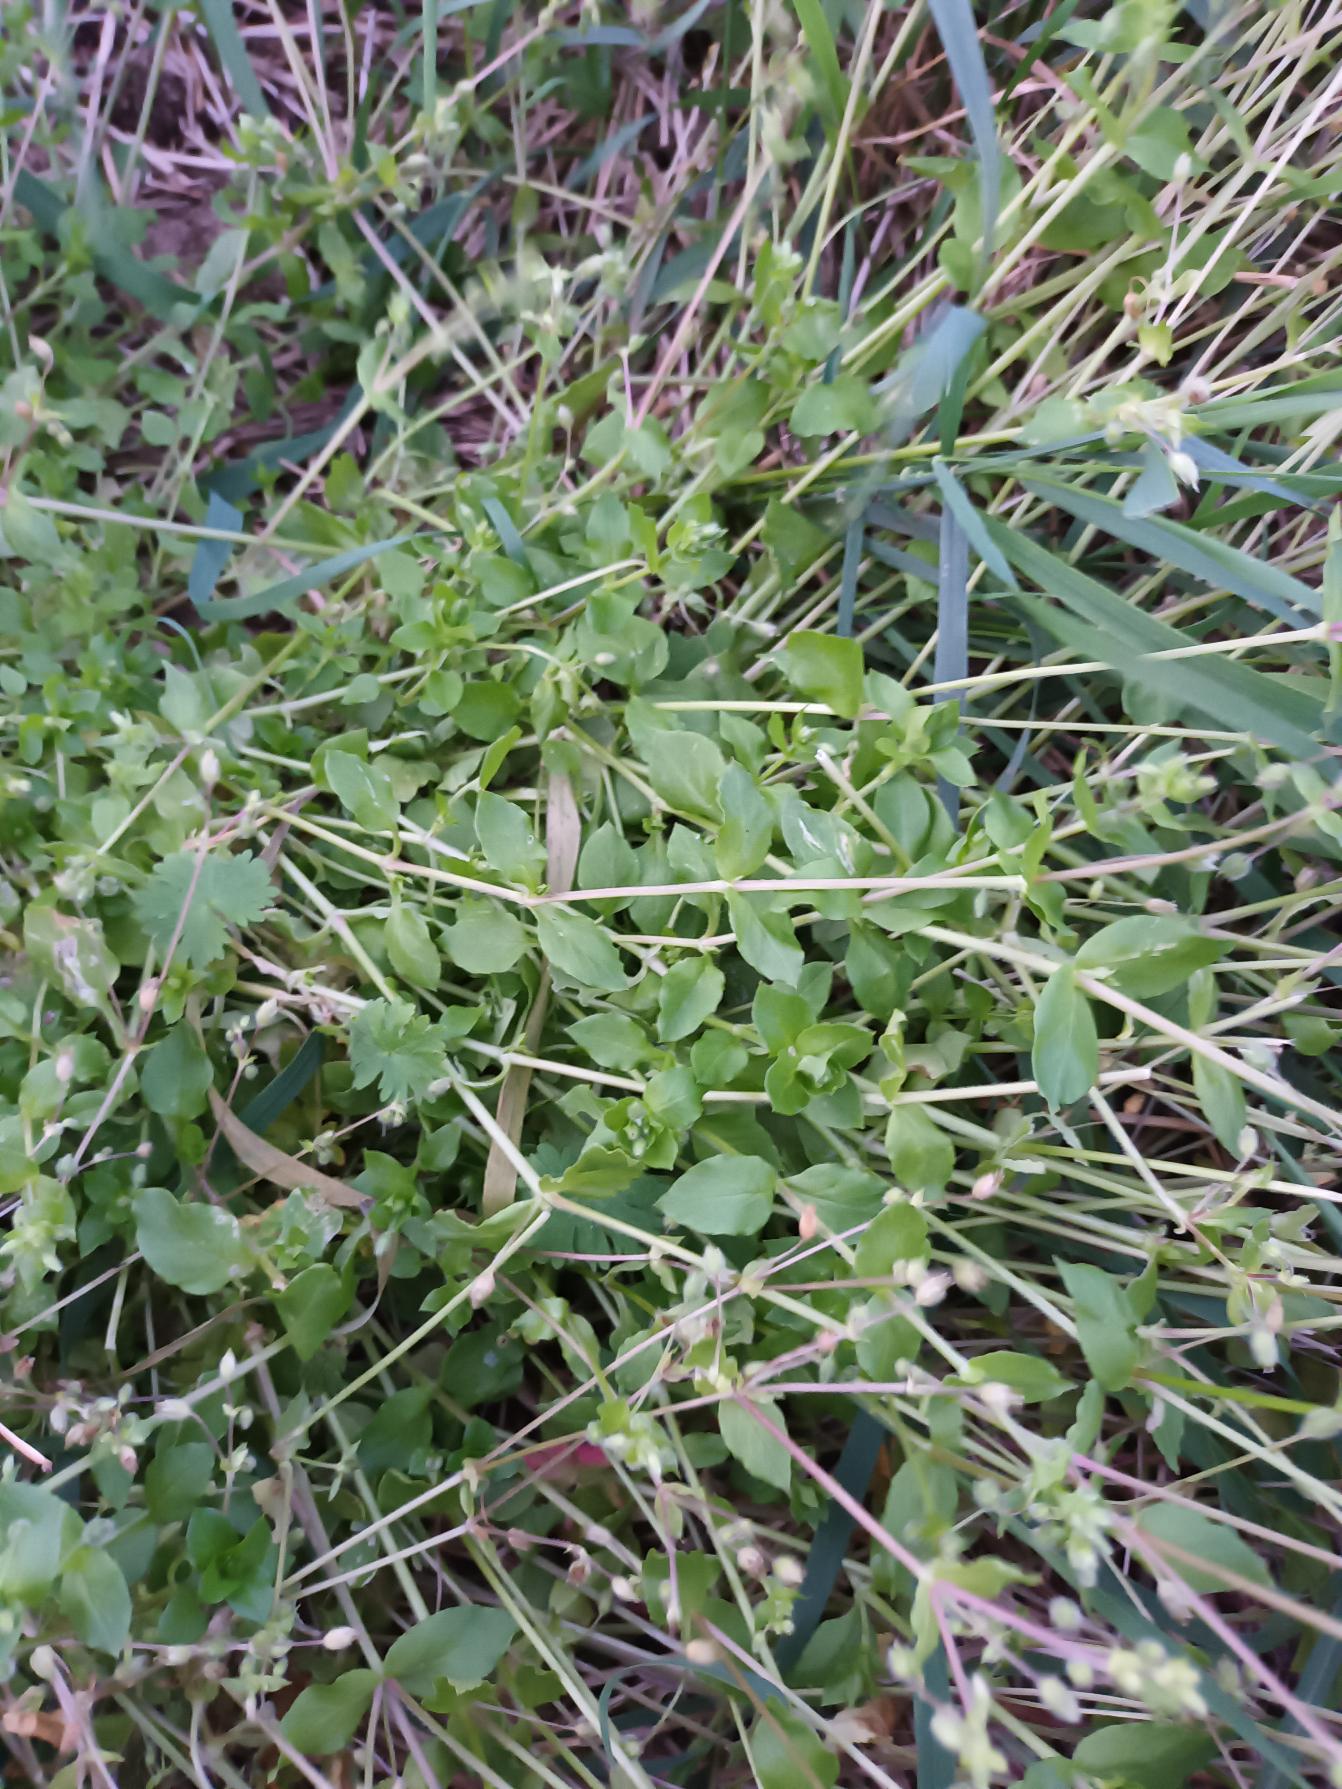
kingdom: Plantae
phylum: Tracheophyta
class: Magnoliopsida
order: Caryophyllales
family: Caryophyllaceae
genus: Stellaria
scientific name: Stellaria media
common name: Almindelig fuglegræs
